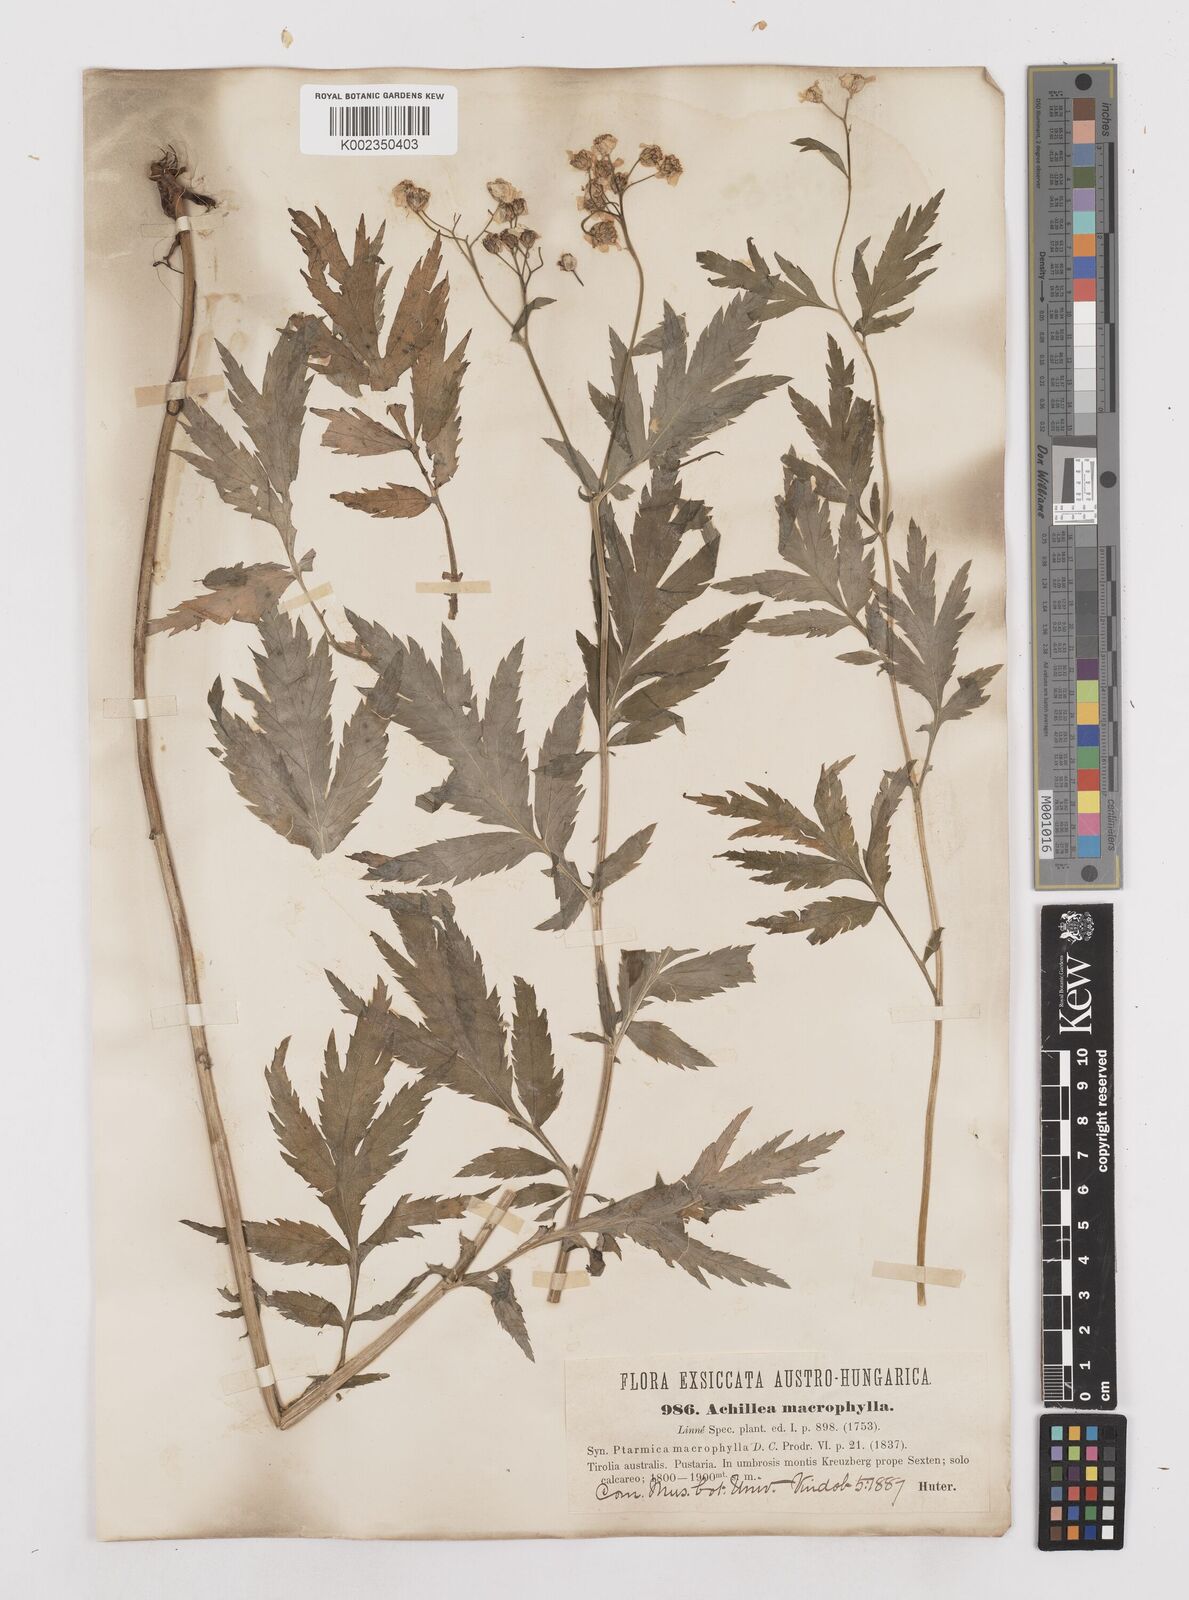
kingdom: Plantae
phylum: Tracheophyta
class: Magnoliopsida
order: Asterales
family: Asteraceae
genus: Achillea
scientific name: Achillea macrophylla
